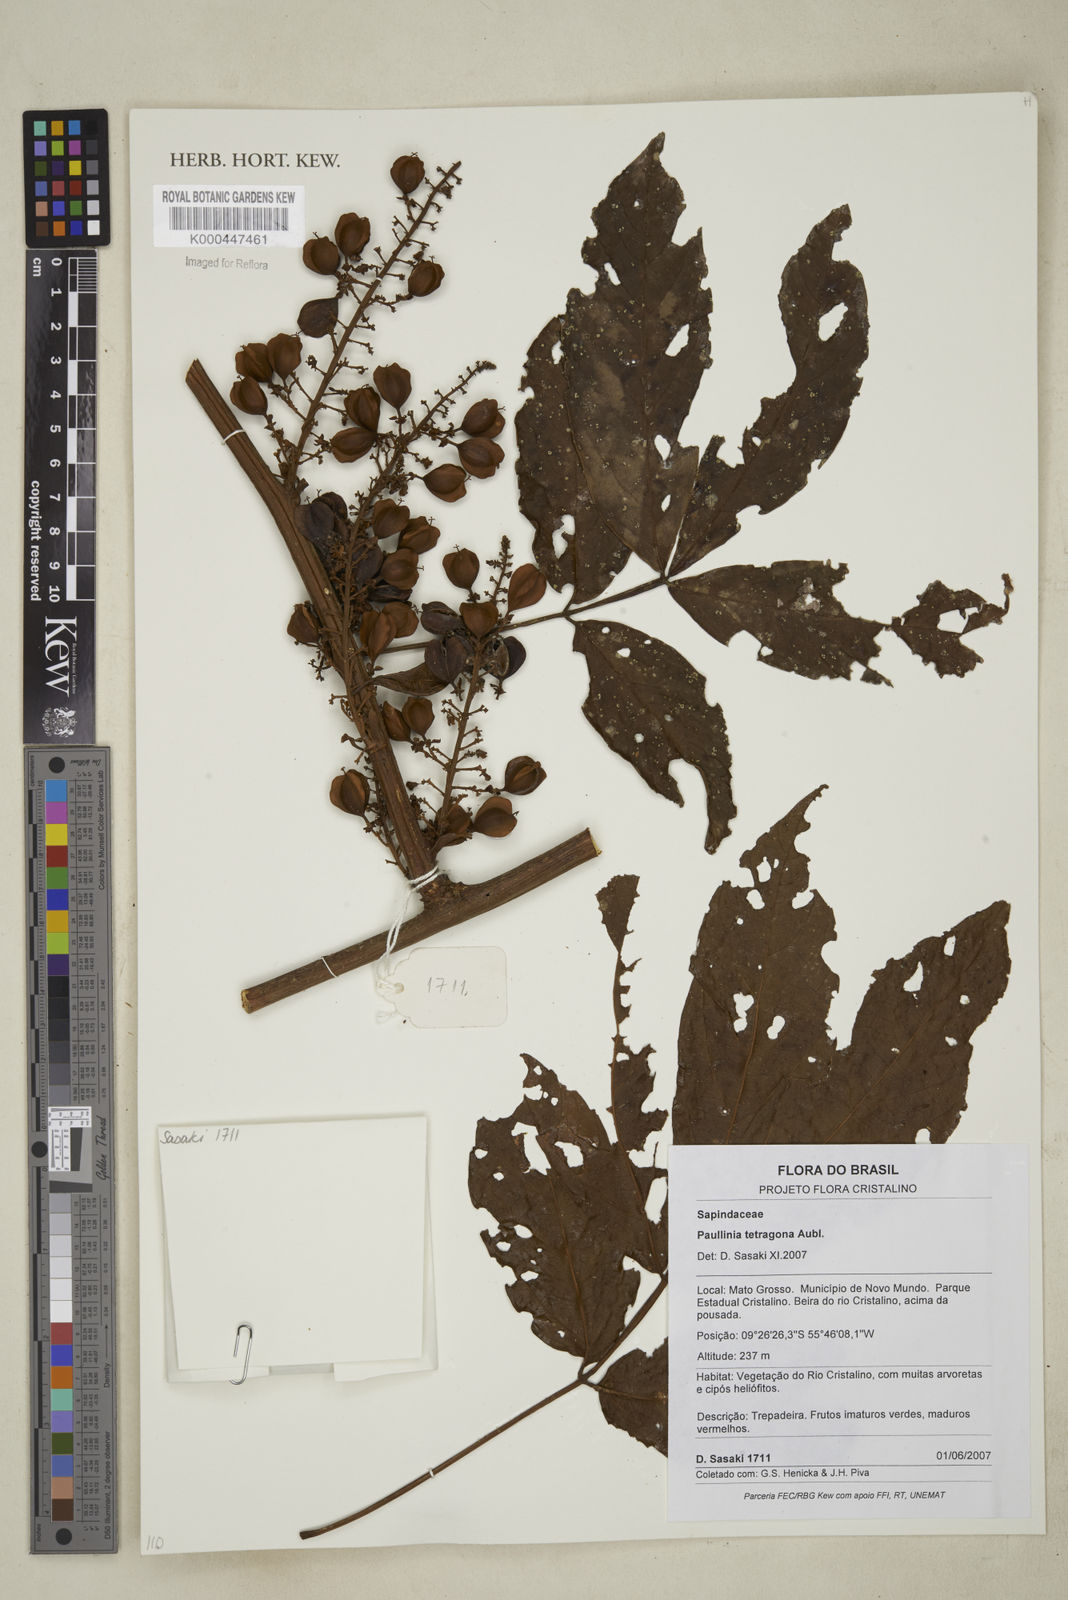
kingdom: Plantae
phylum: Tracheophyta
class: Magnoliopsida
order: Sapindales
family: Sapindaceae
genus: Paullinia
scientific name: Paullinia tetragona
